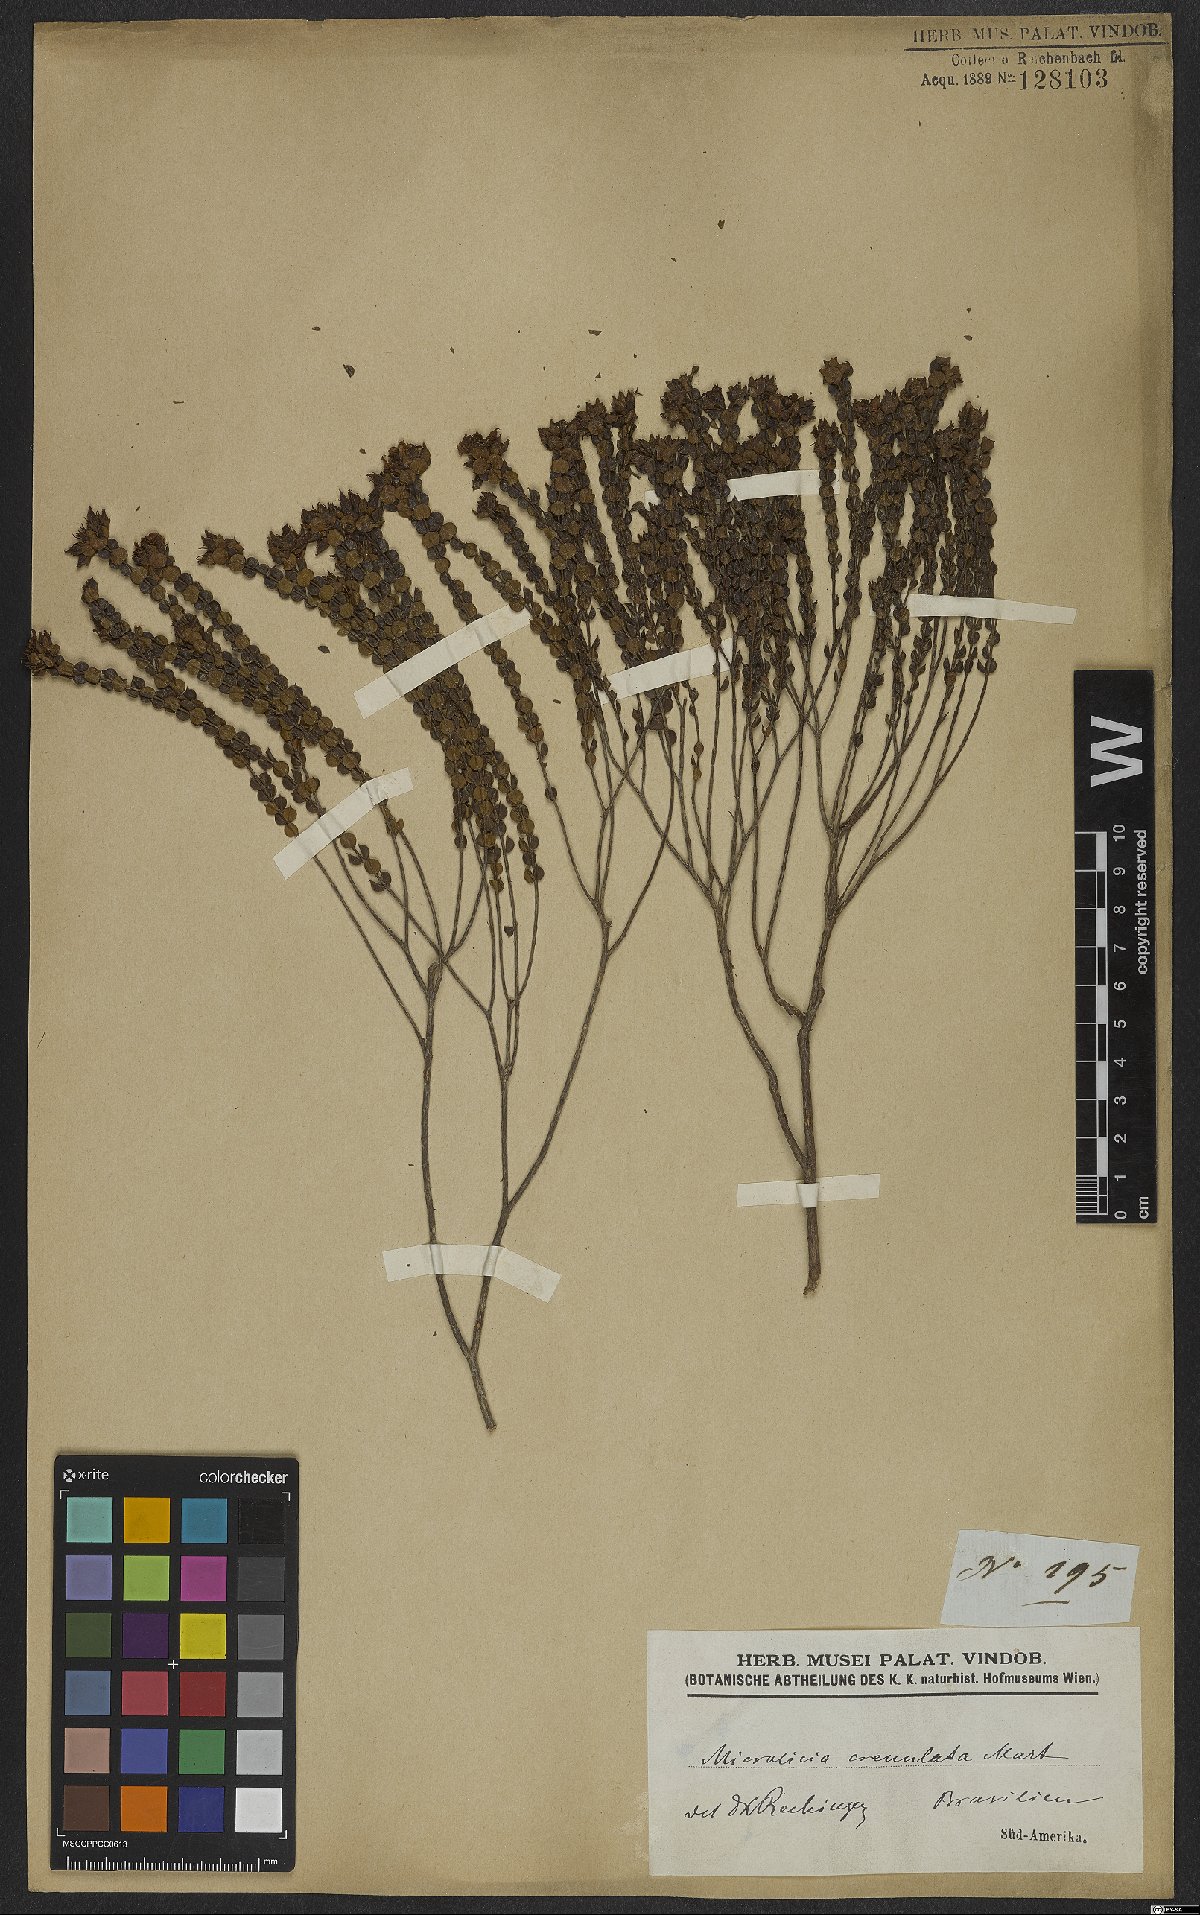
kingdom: Plantae
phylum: Tracheophyta
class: Magnoliopsida
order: Myrtales
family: Melastomataceae
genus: Microlicia
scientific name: Microlicia crenulata
